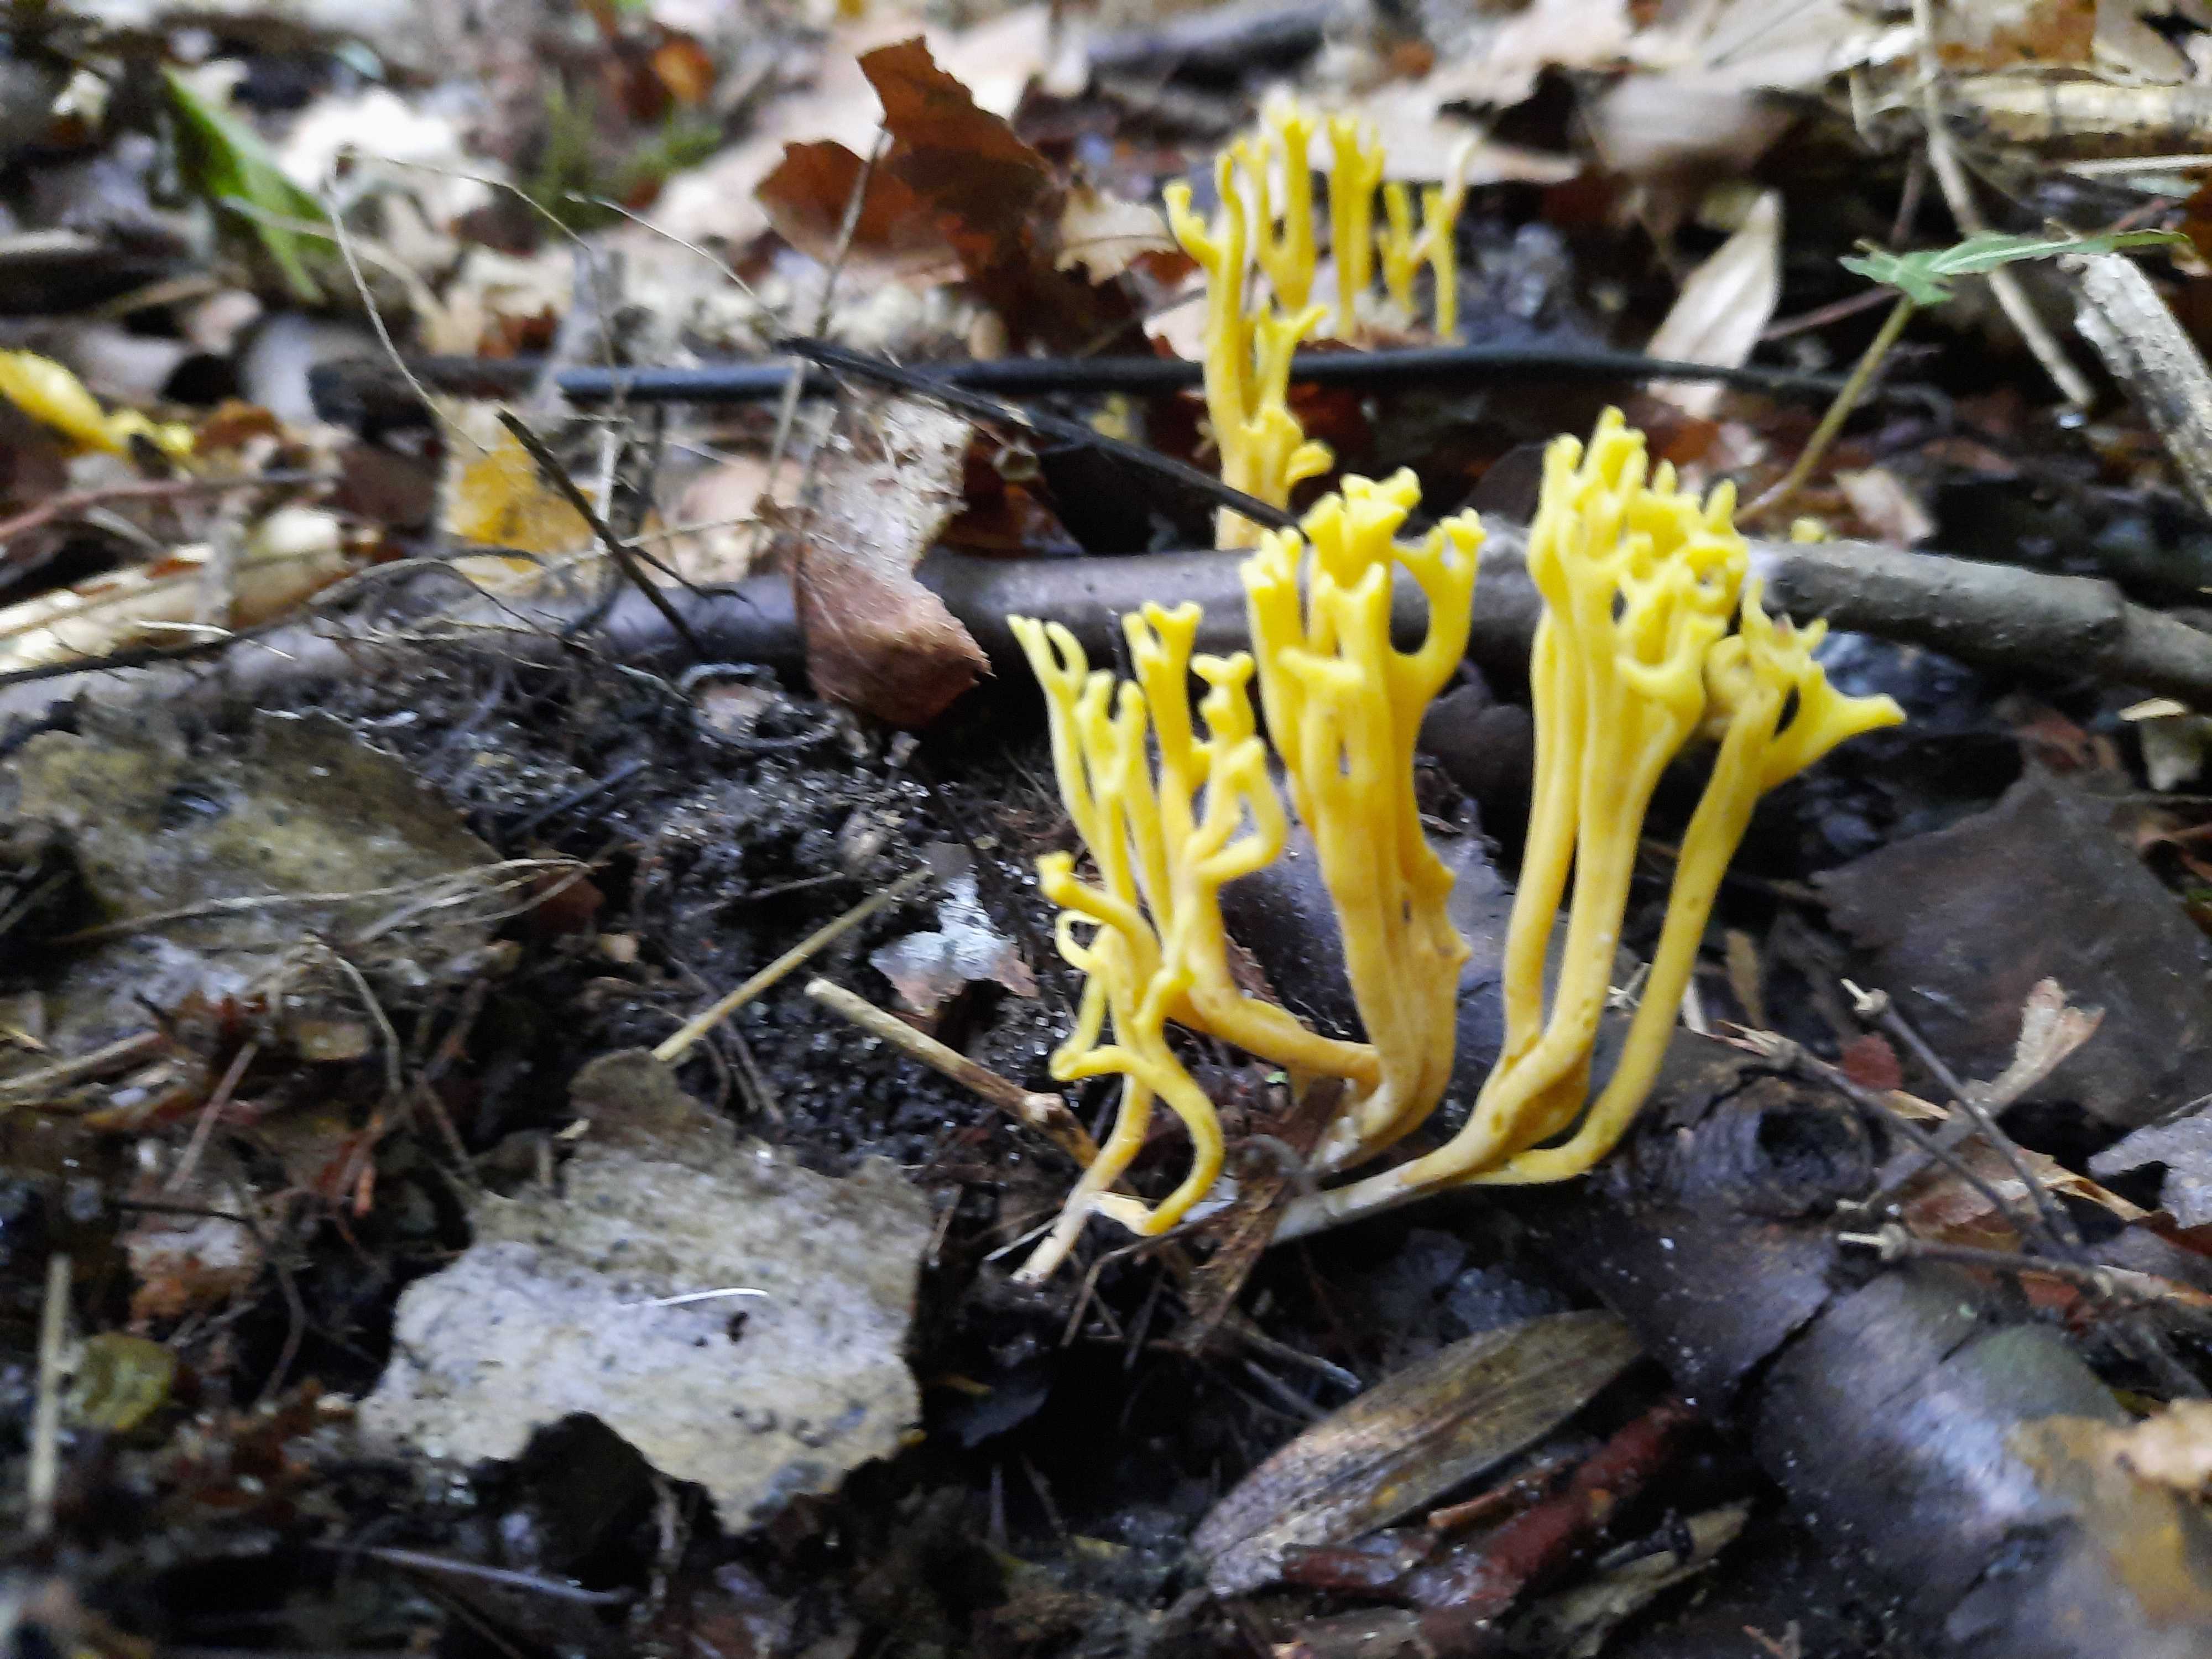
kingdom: Fungi
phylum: Basidiomycota
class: Agaricomycetes
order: Agaricales
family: Clavariaceae
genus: Clavulinopsis
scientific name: Clavulinopsis corniculata
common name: eng-køllesvamp
